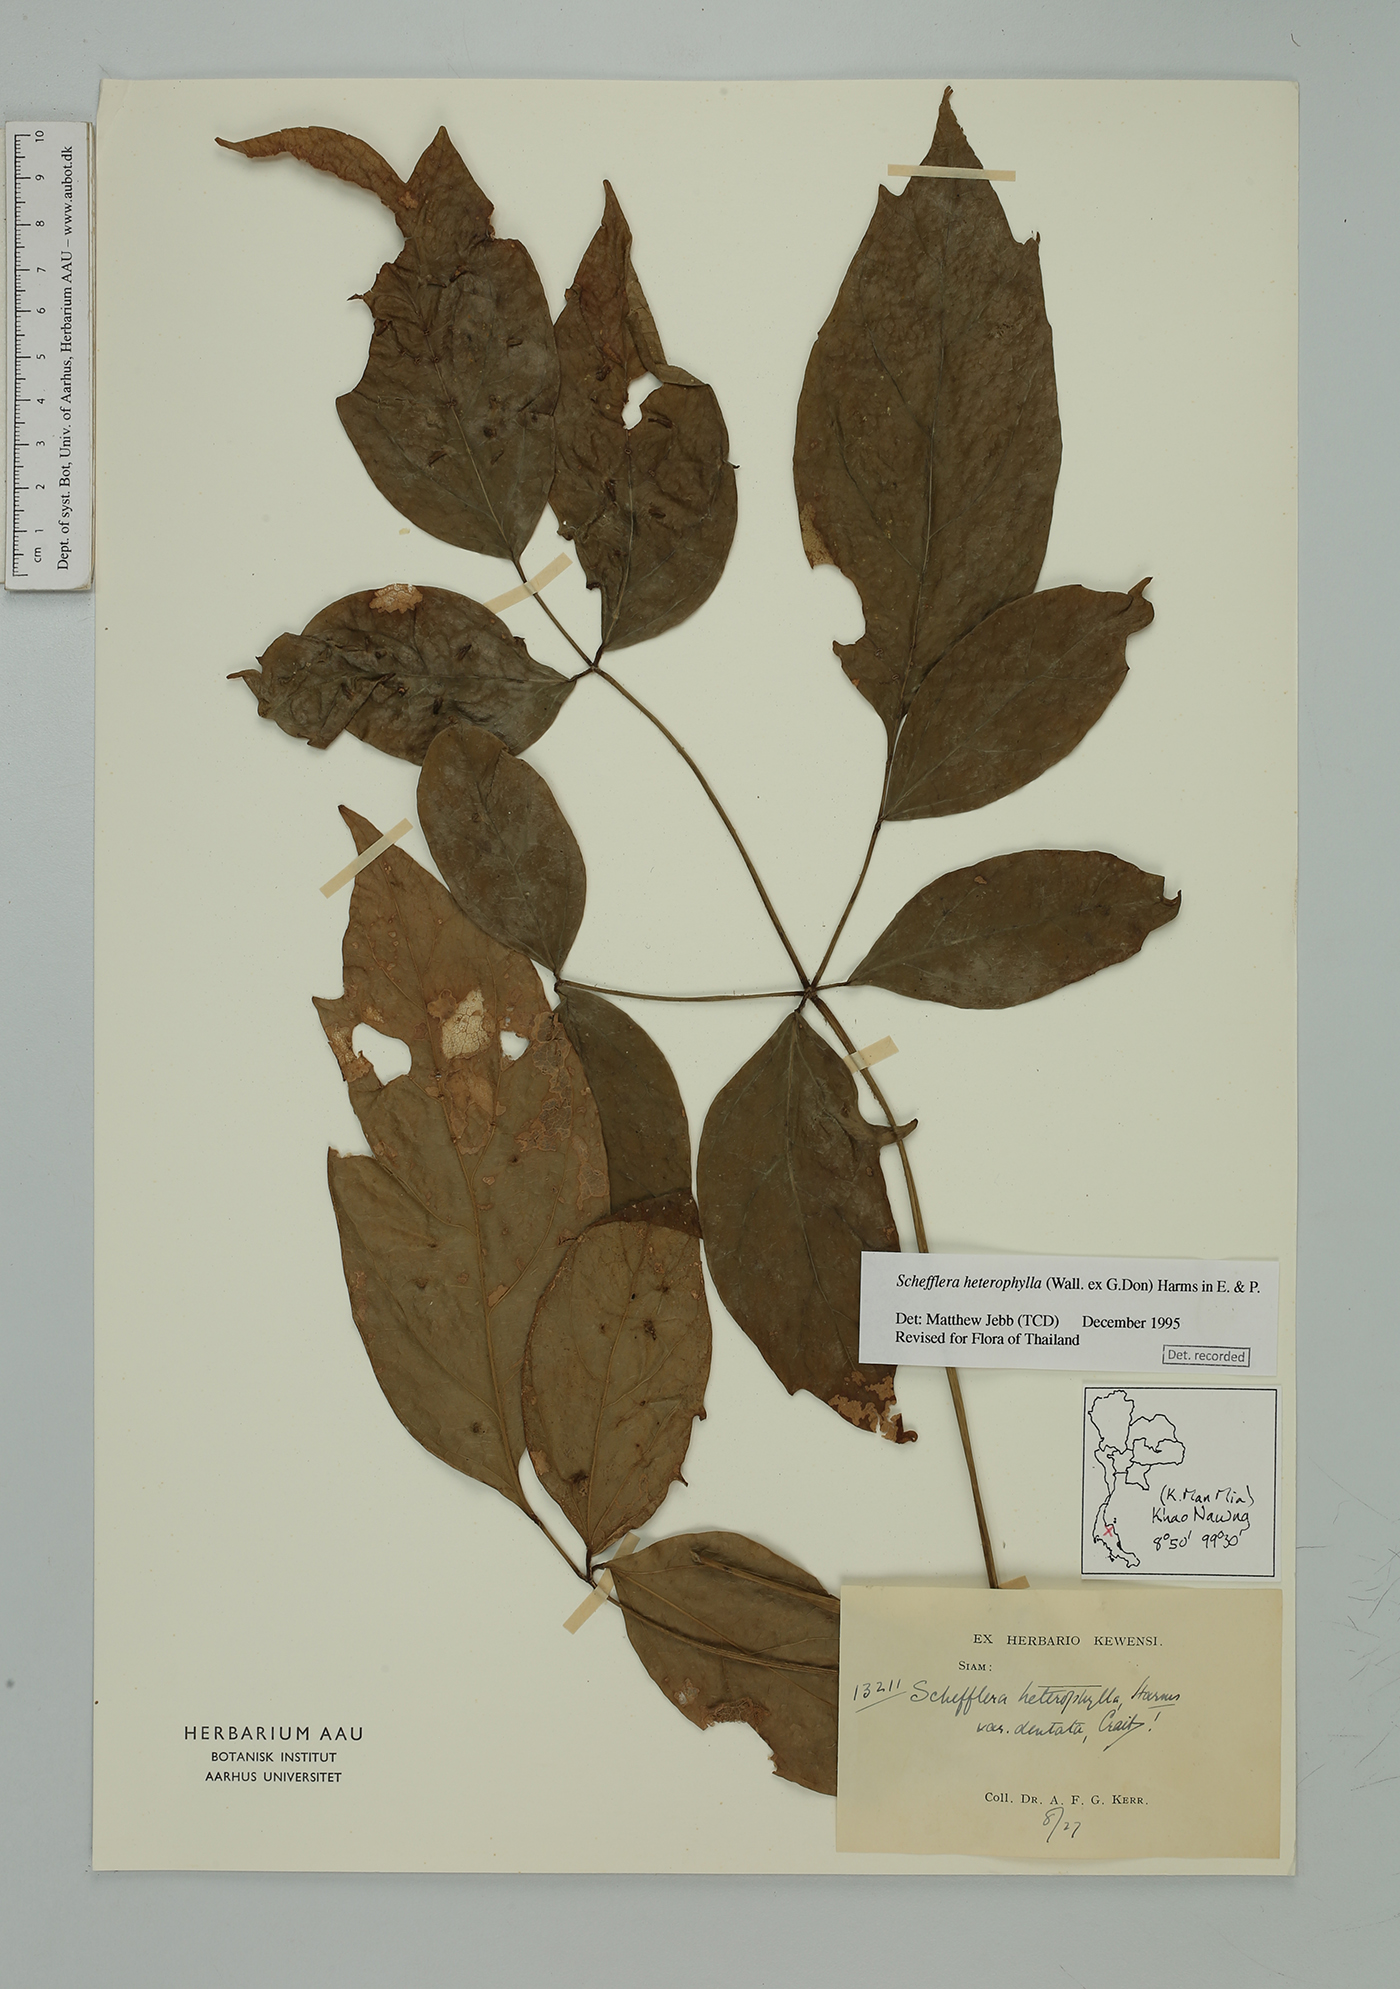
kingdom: Plantae
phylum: Tracheophyta
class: Magnoliopsida
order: Apiales
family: Araliaceae
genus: Heptapleurum
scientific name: Heptapleurum heterophyllum
